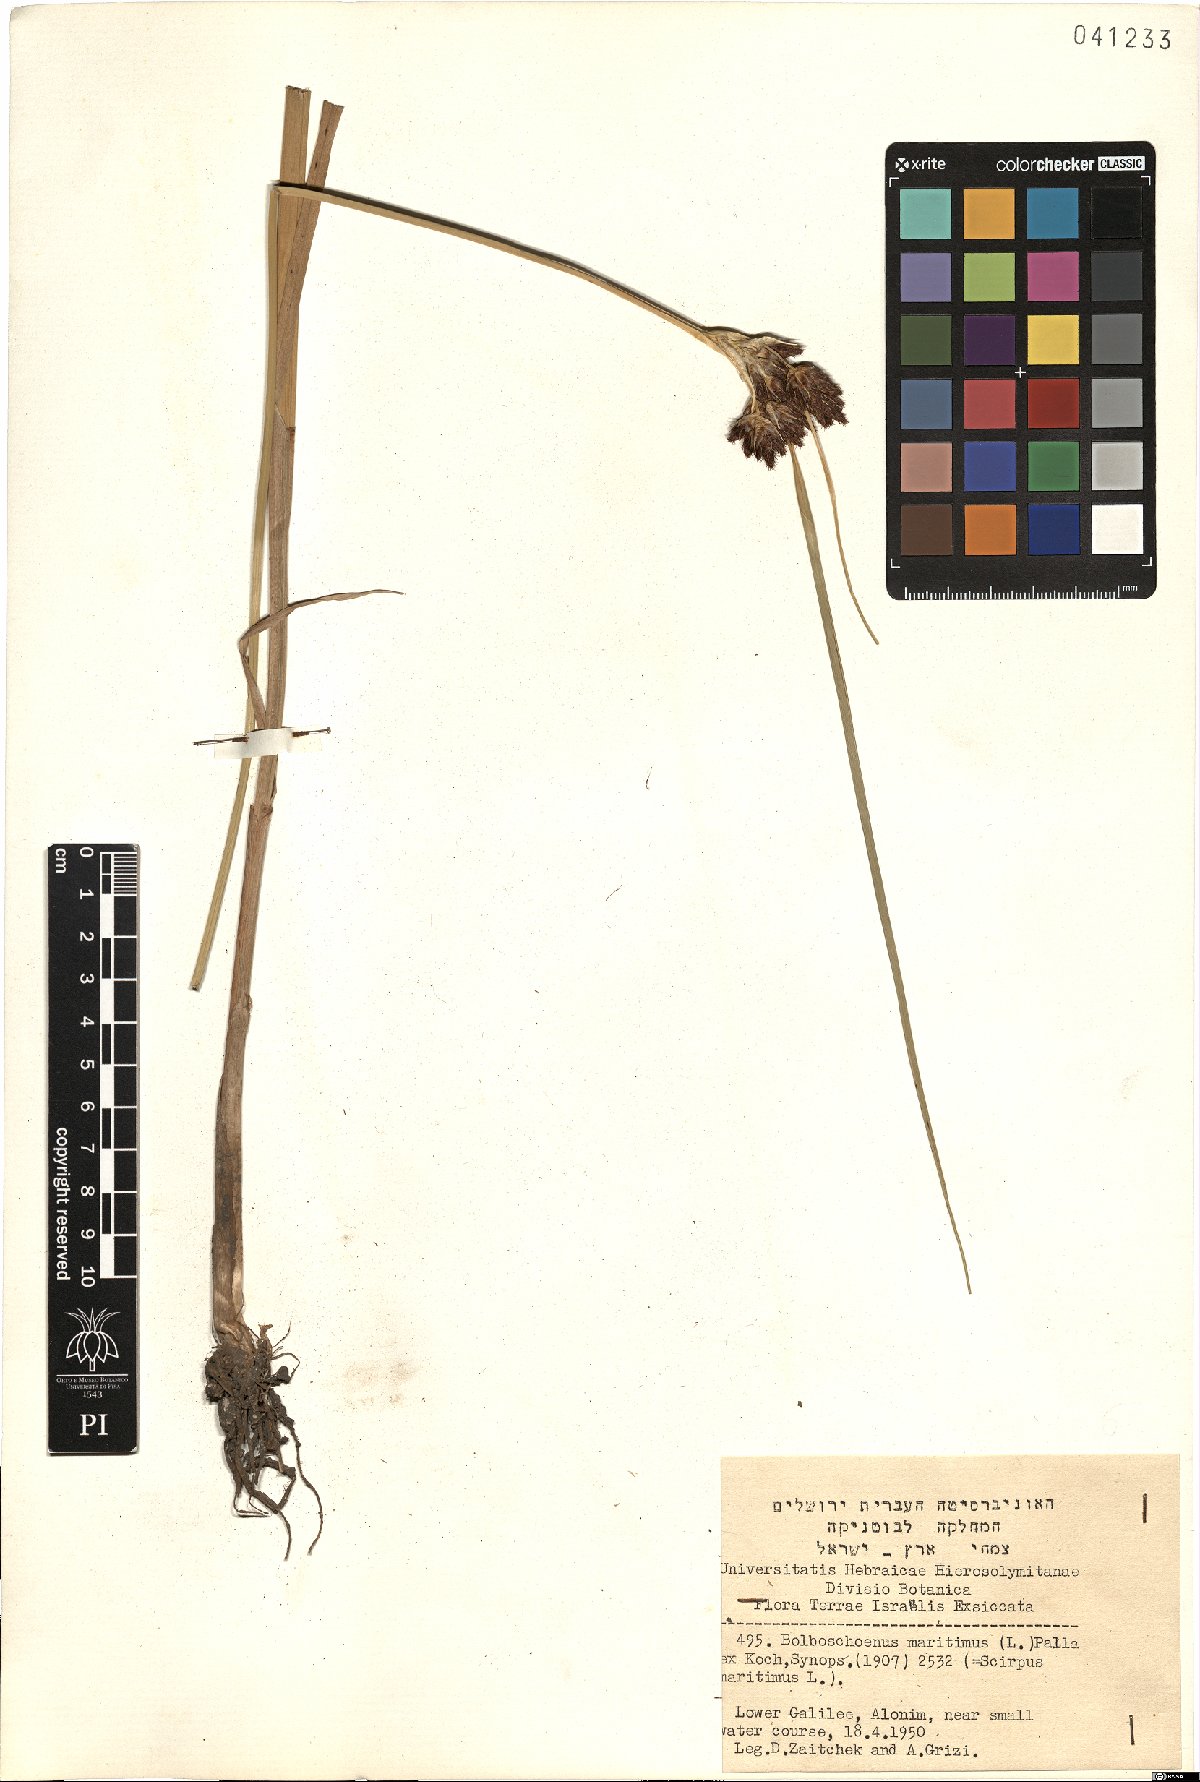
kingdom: Plantae
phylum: Tracheophyta
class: Liliopsida
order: Poales
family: Cyperaceae
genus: Bolboschoenus
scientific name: Bolboschoenus maritimus
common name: Sea club-rush
